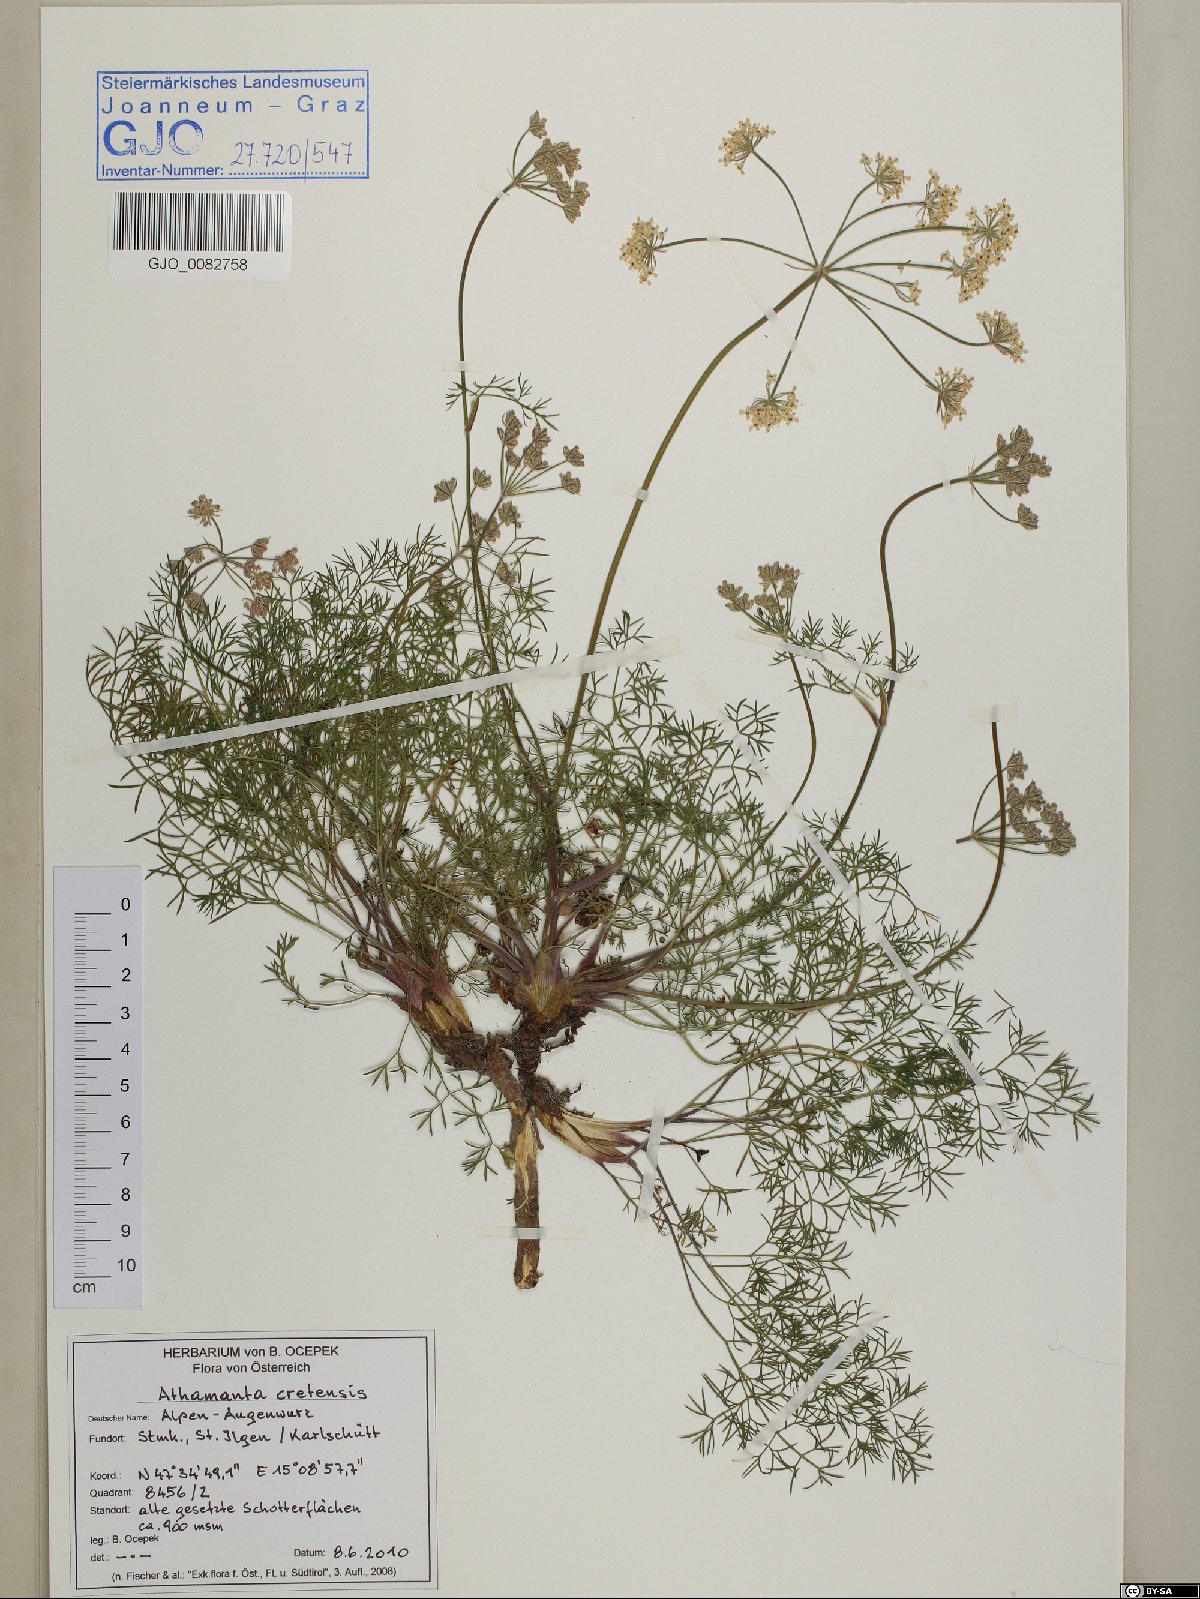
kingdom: Plantae
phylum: Tracheophyta
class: Magnoliopsida
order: Apiales
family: Apiaceae
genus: Athamanta
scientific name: Athamanta cretensis
